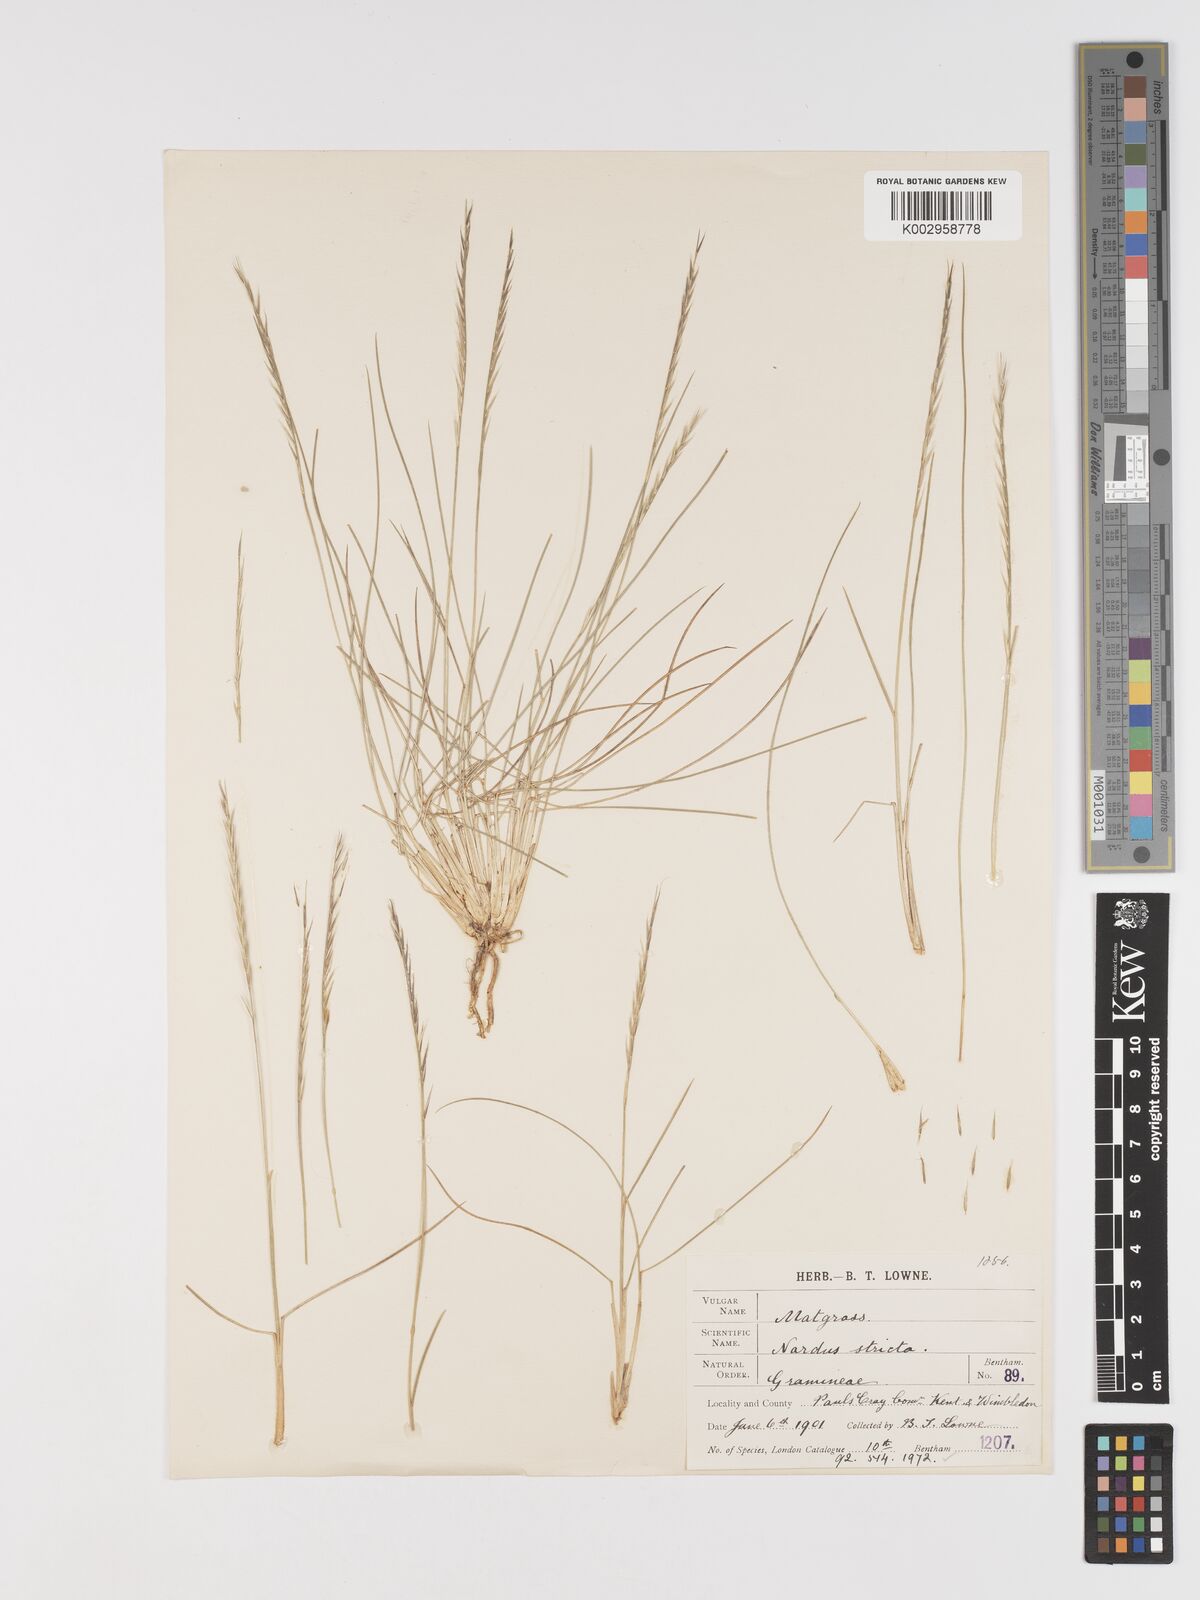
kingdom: Plantae
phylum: Tracheophyta
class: Liliopsida
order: Poales
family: Poaceae
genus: Nardus
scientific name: Nardus stricta
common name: Mat-grass
